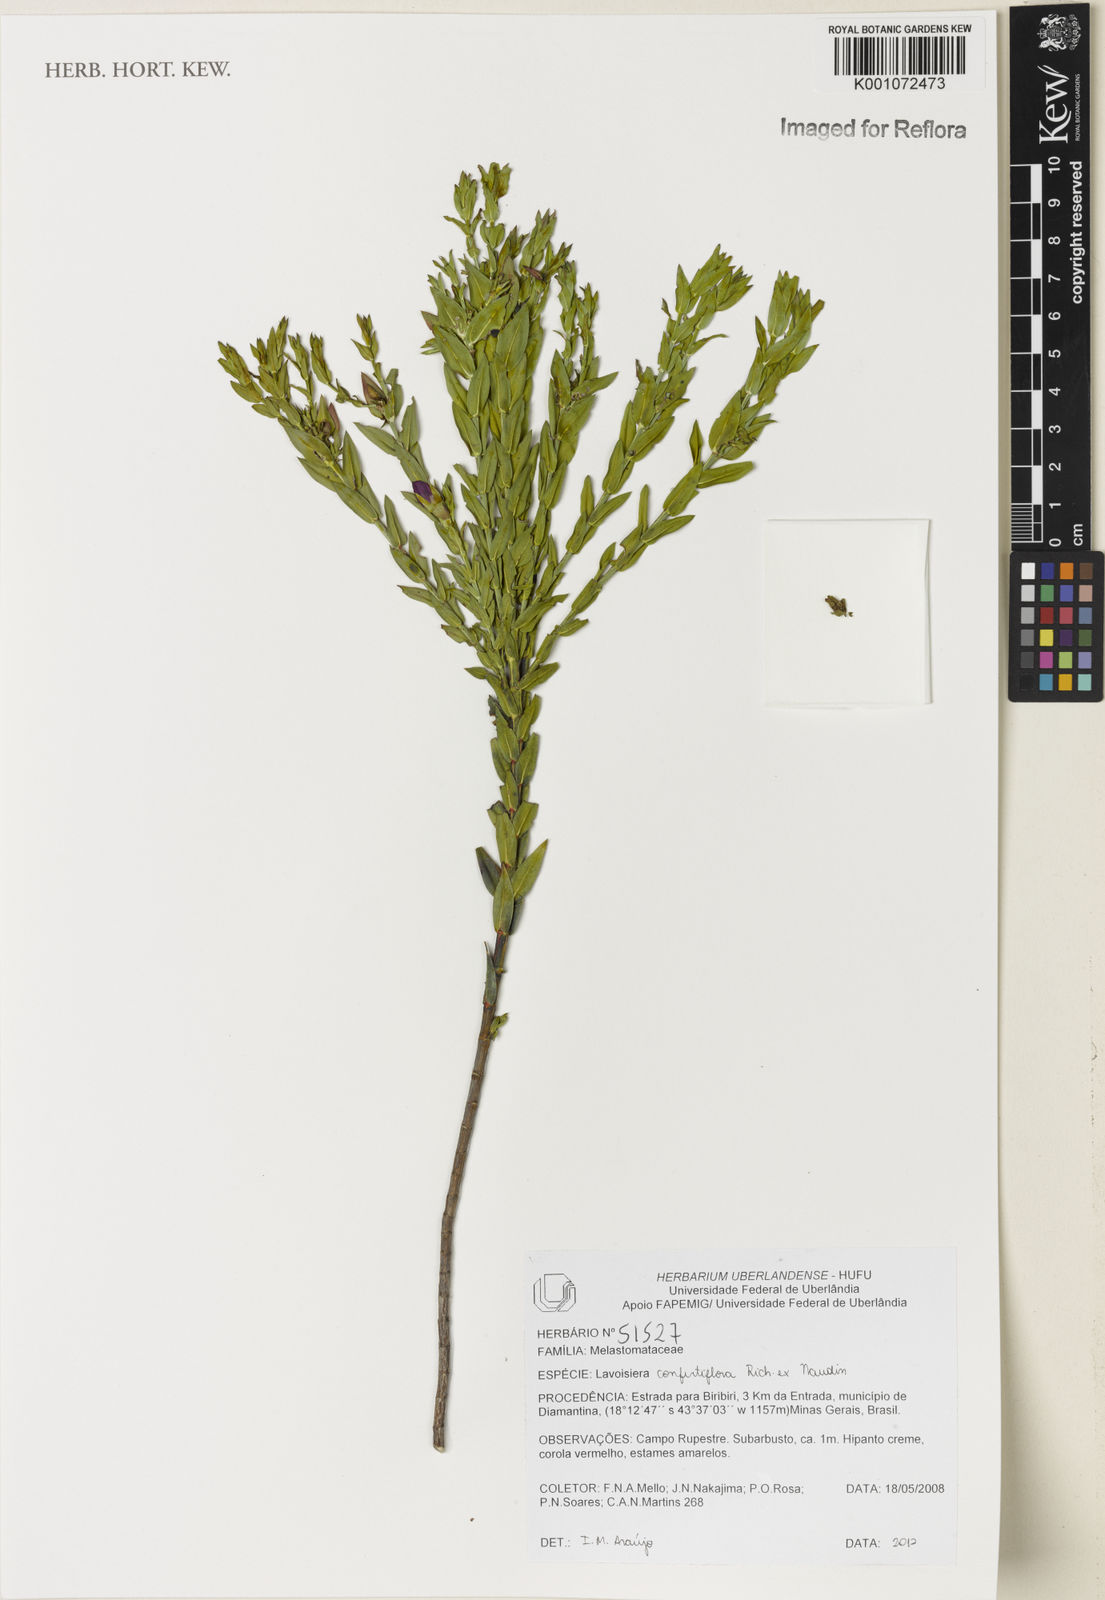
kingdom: Plantae
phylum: Tracheophyta
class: Magnoliopsida
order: Myrtales
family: Melastomataceae
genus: Microlicia
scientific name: Microlicia congestiflora
